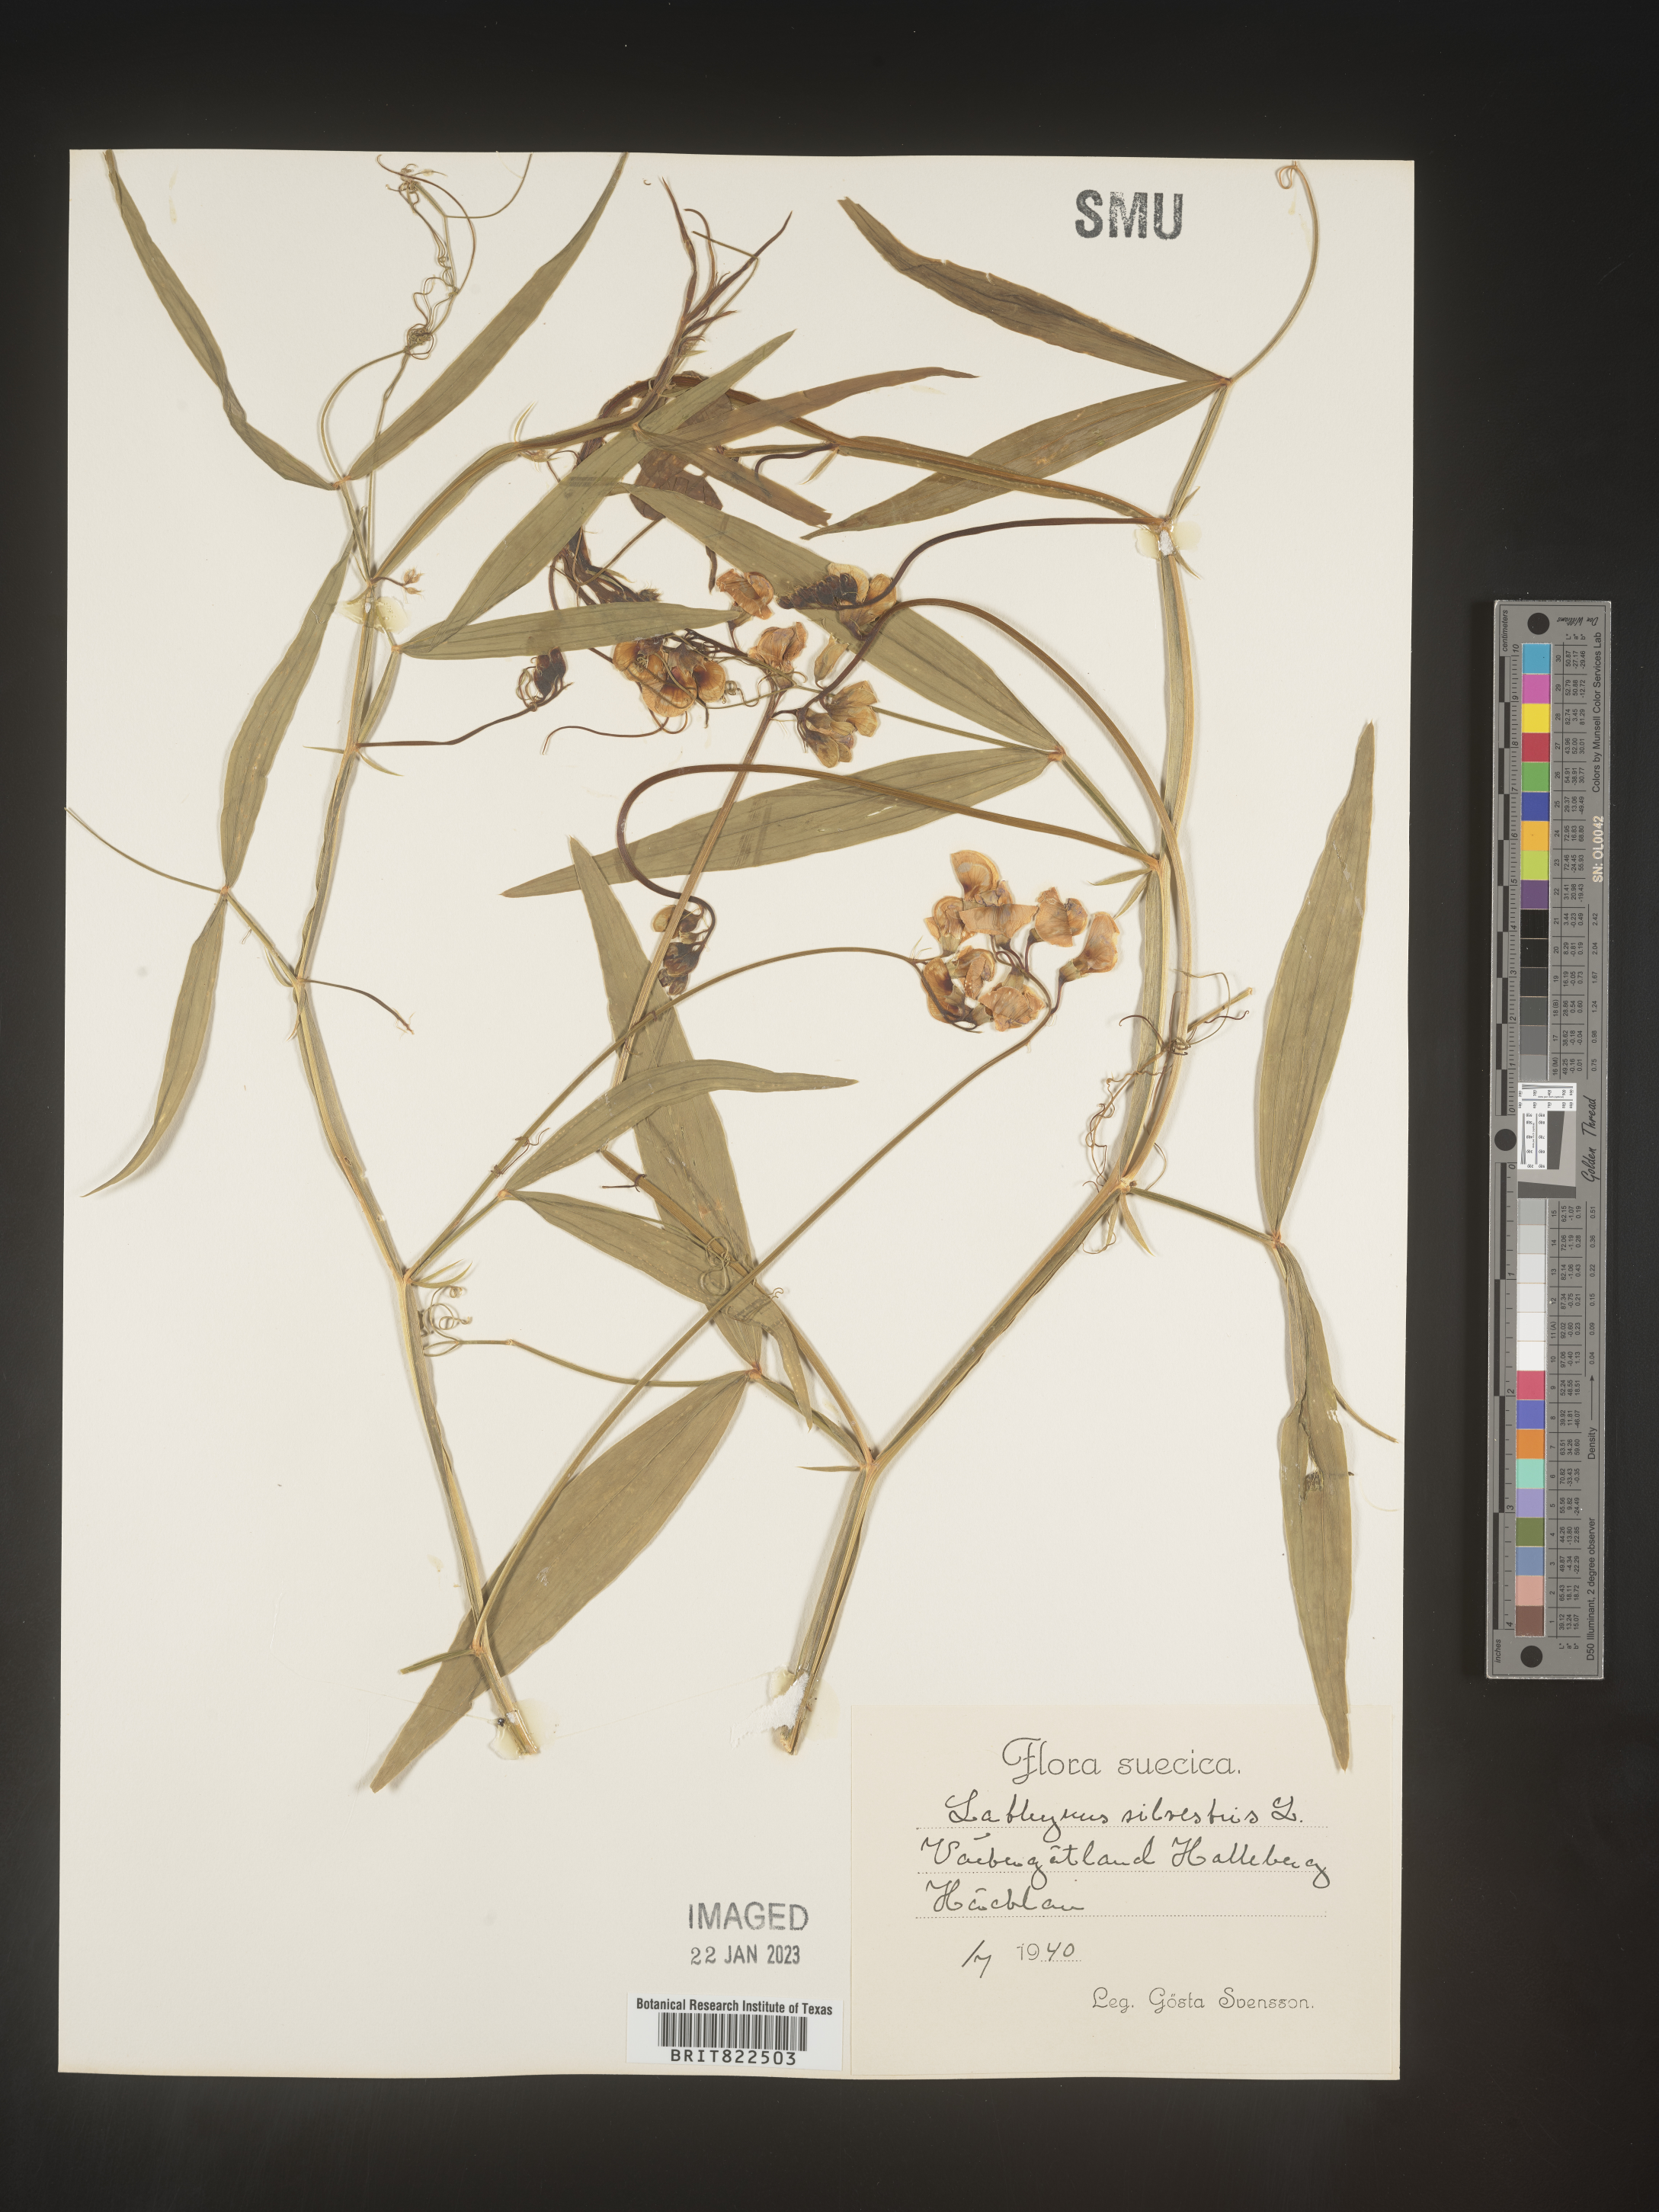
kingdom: Plantae
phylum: Tracheophyta
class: Magnoliopsida
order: Fabales
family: Fabaceae
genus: Lathyrus
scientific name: Lathyrus
